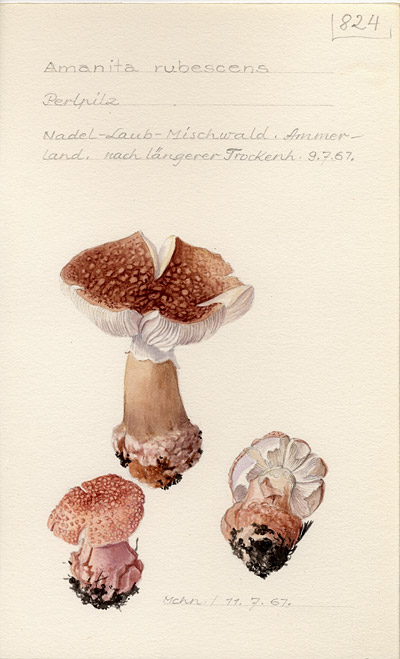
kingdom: Fungi
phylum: Basidiomycota
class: Agaricomycetes
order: Agaricales
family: Amanitaceae
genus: Amanita
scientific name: Amanita rubescens
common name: Blusher
